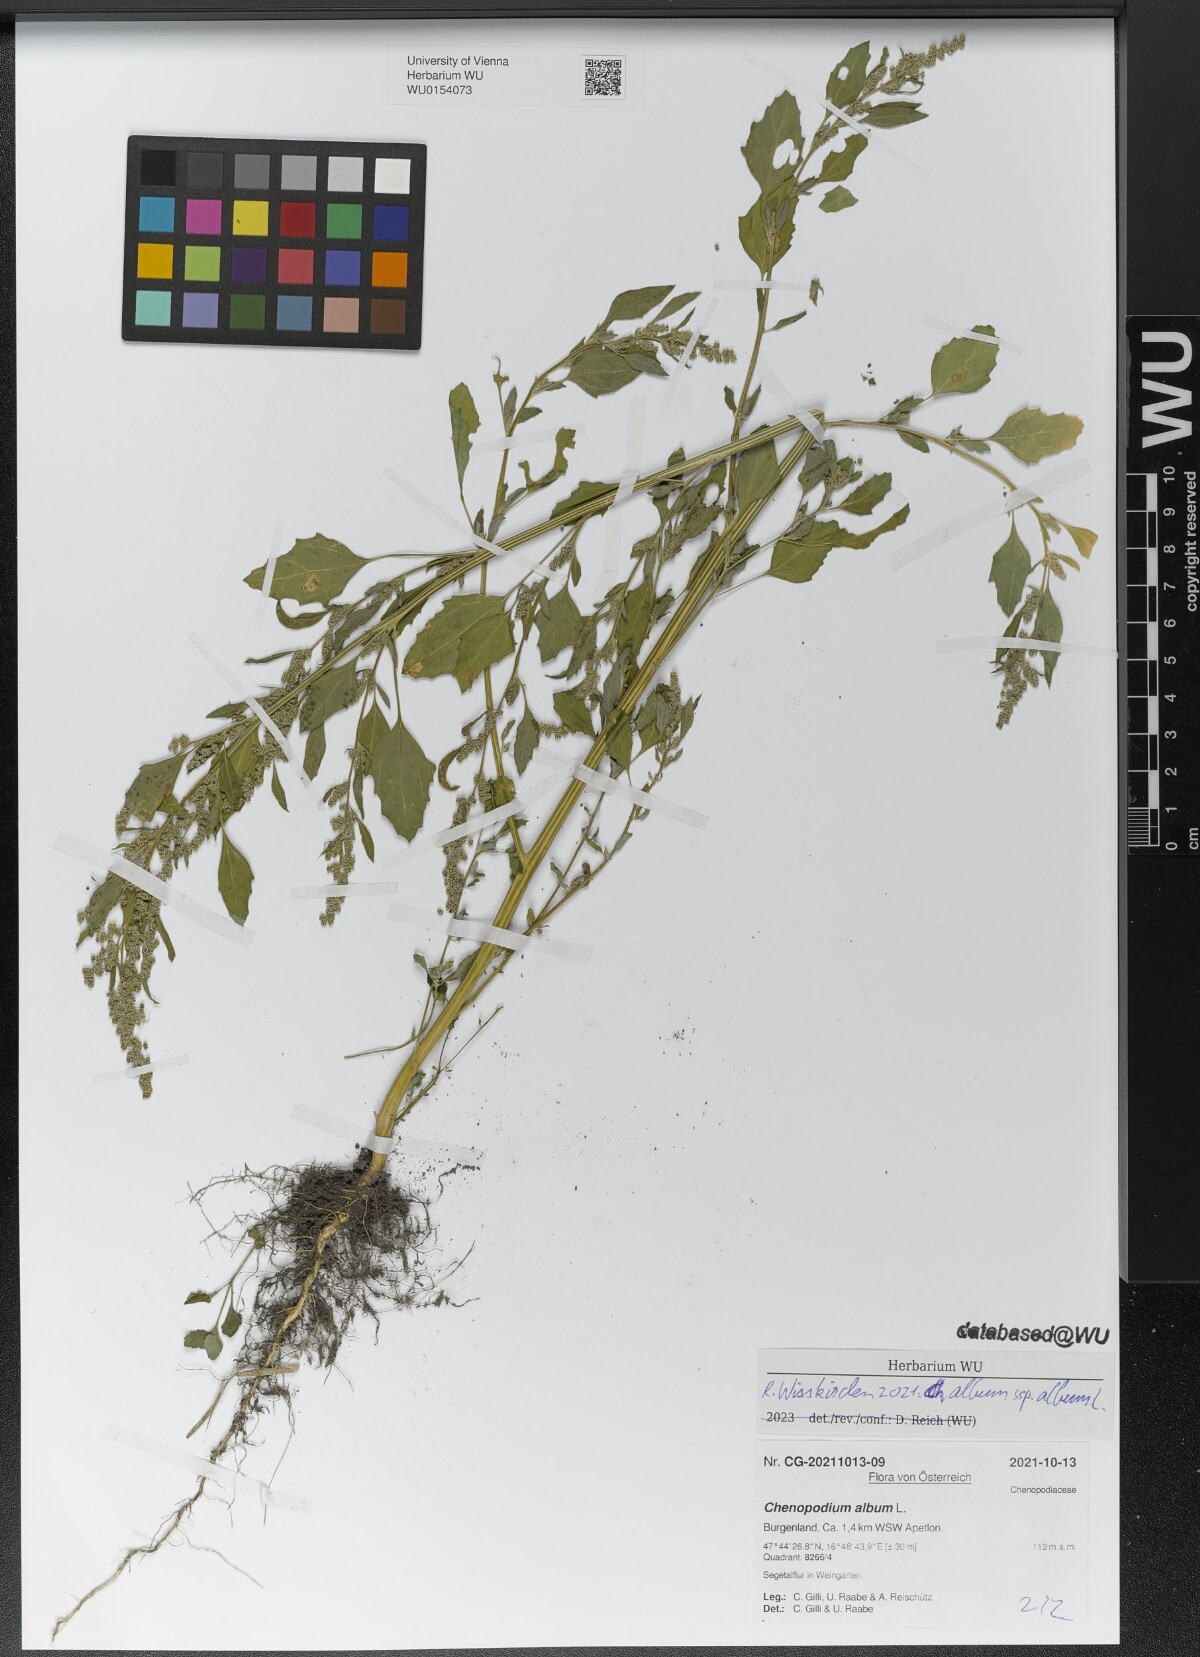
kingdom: Plantae
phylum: Tracheophyta
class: Magnoliopsida
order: Caryophyllales
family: Amaranthaceae
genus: Chenopodium
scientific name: Chenopodium album
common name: Fat-hen
